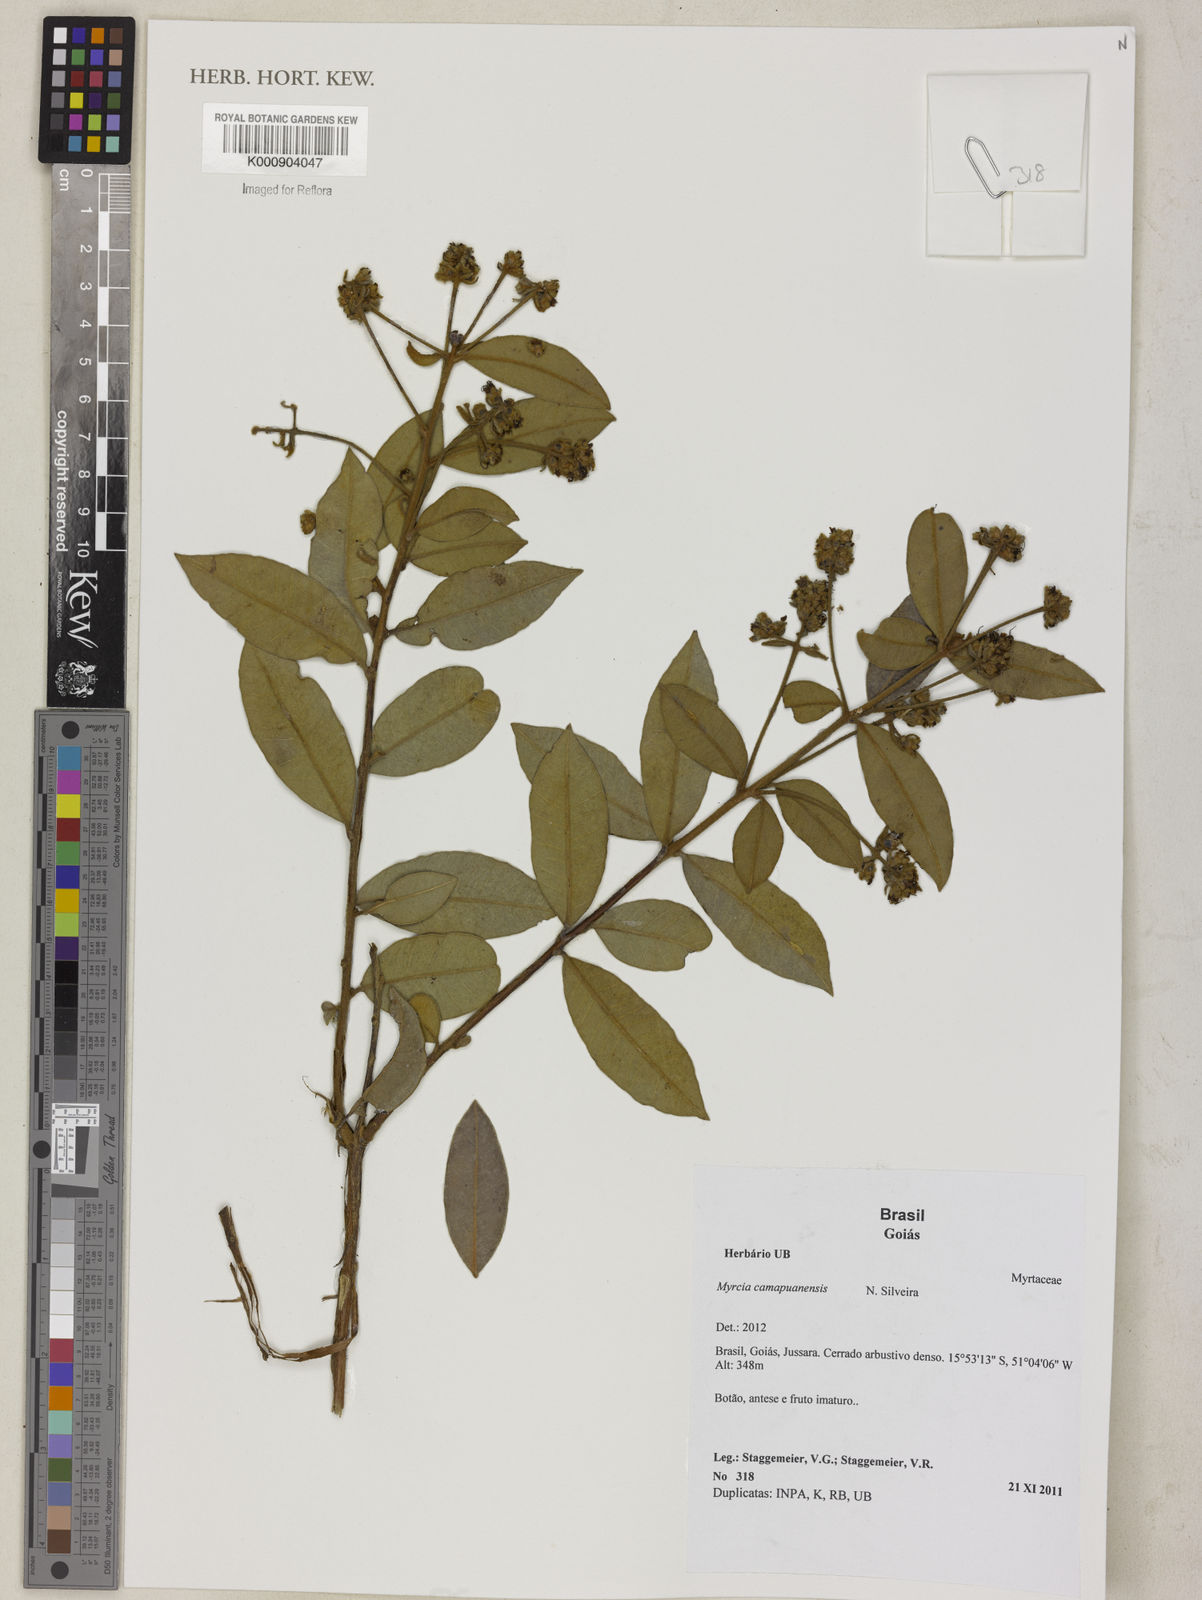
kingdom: Plantae
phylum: Tracheophyta
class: Magnoliopsida
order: Myrtales
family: Myrtaceae
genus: Myrcia
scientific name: Myrcia camapuanensis
